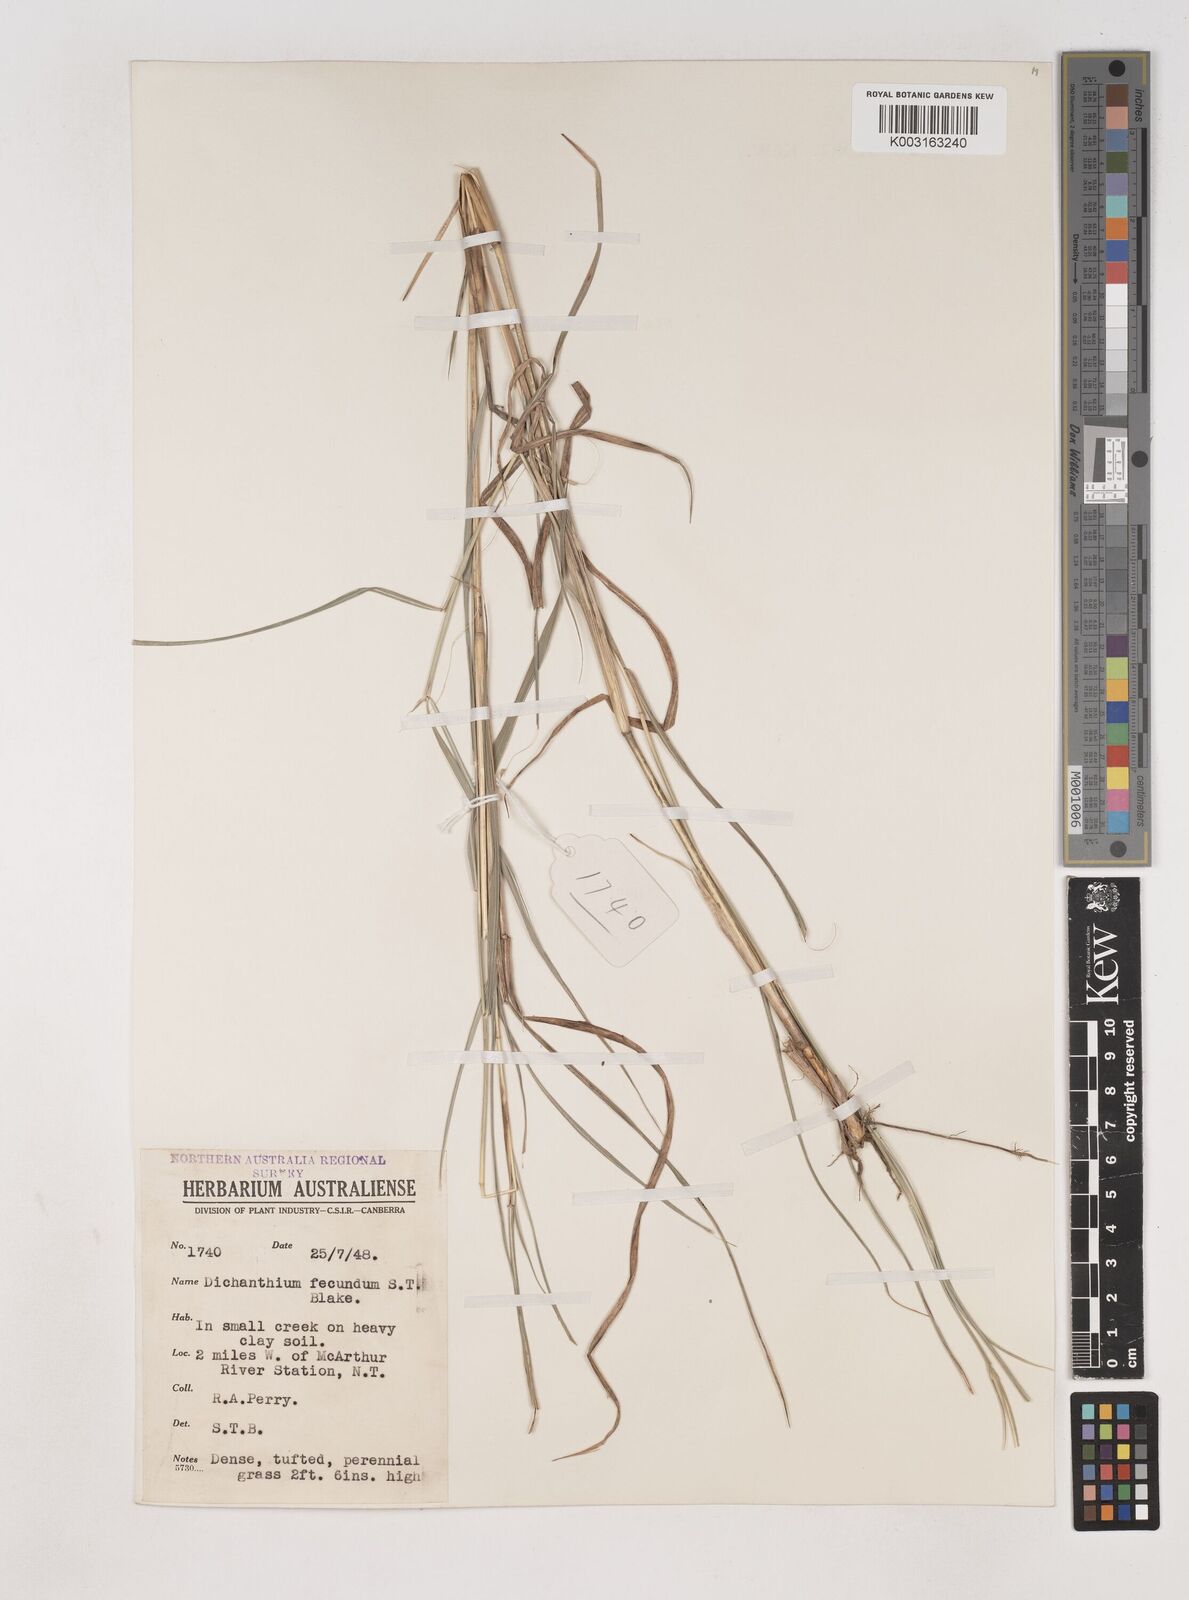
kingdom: Plantae
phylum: Tracheophyta
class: Liliopsida
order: Poales
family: Poaceae
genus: Dichanthium
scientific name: Dichanthium fecundum
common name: Bundle-bundle
